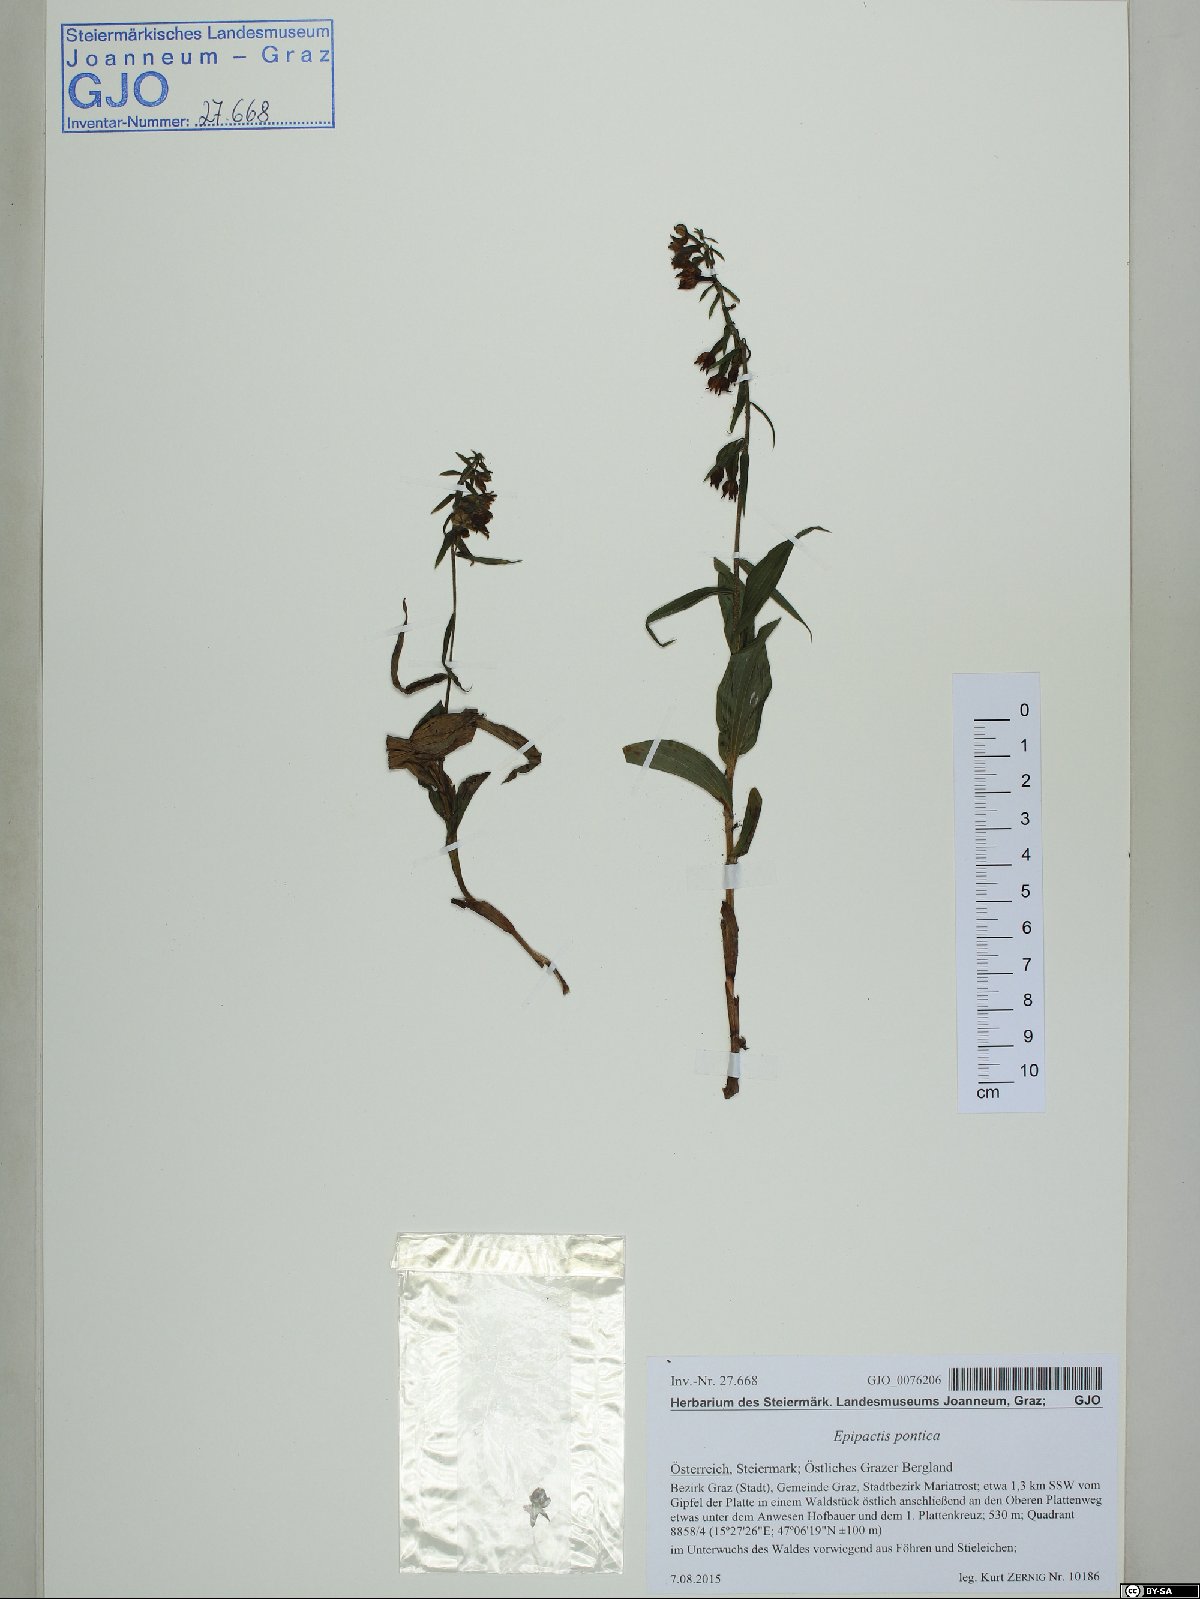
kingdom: Plantae
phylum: Tracheophyta
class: Liliopsida
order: Asparagales
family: Orchidaceae
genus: Epipactis
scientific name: Epipactis pontica
